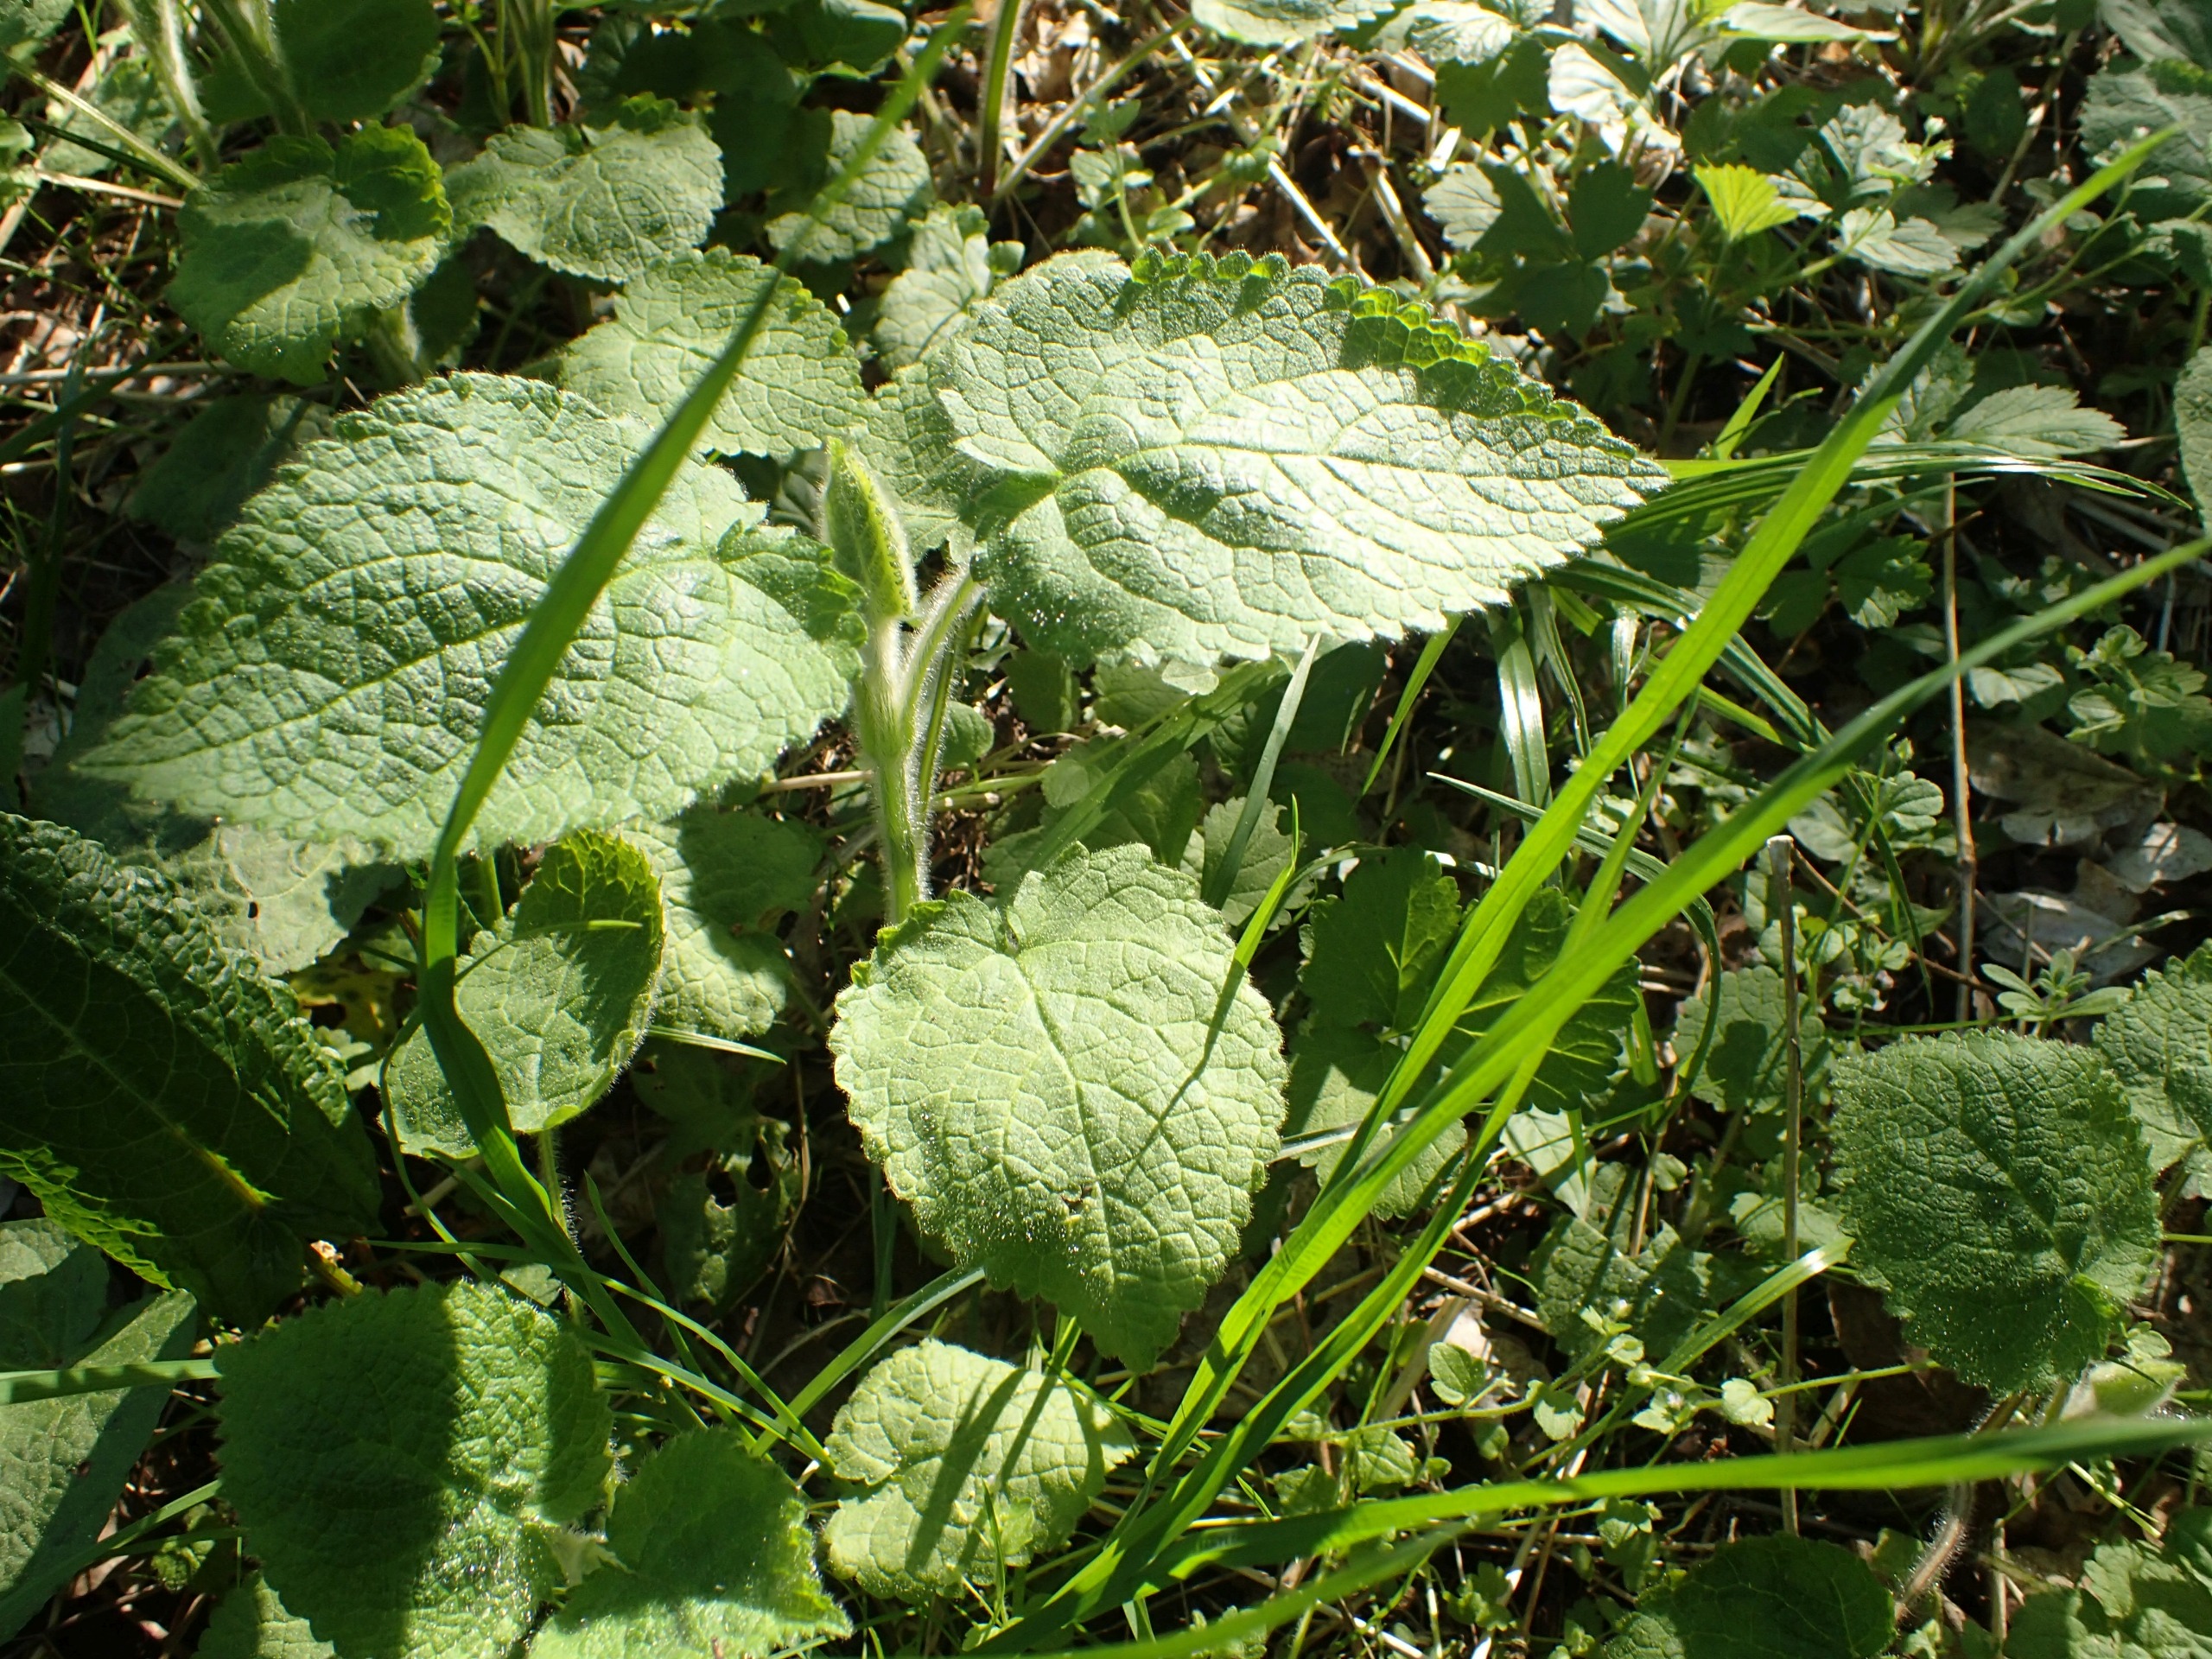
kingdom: Plantae
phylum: Tracheophyta
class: Magnoliopsida
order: Lamiales
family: Lamiaceae
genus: Stachys
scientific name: Stachys sylvatica
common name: Skov-galtetand
